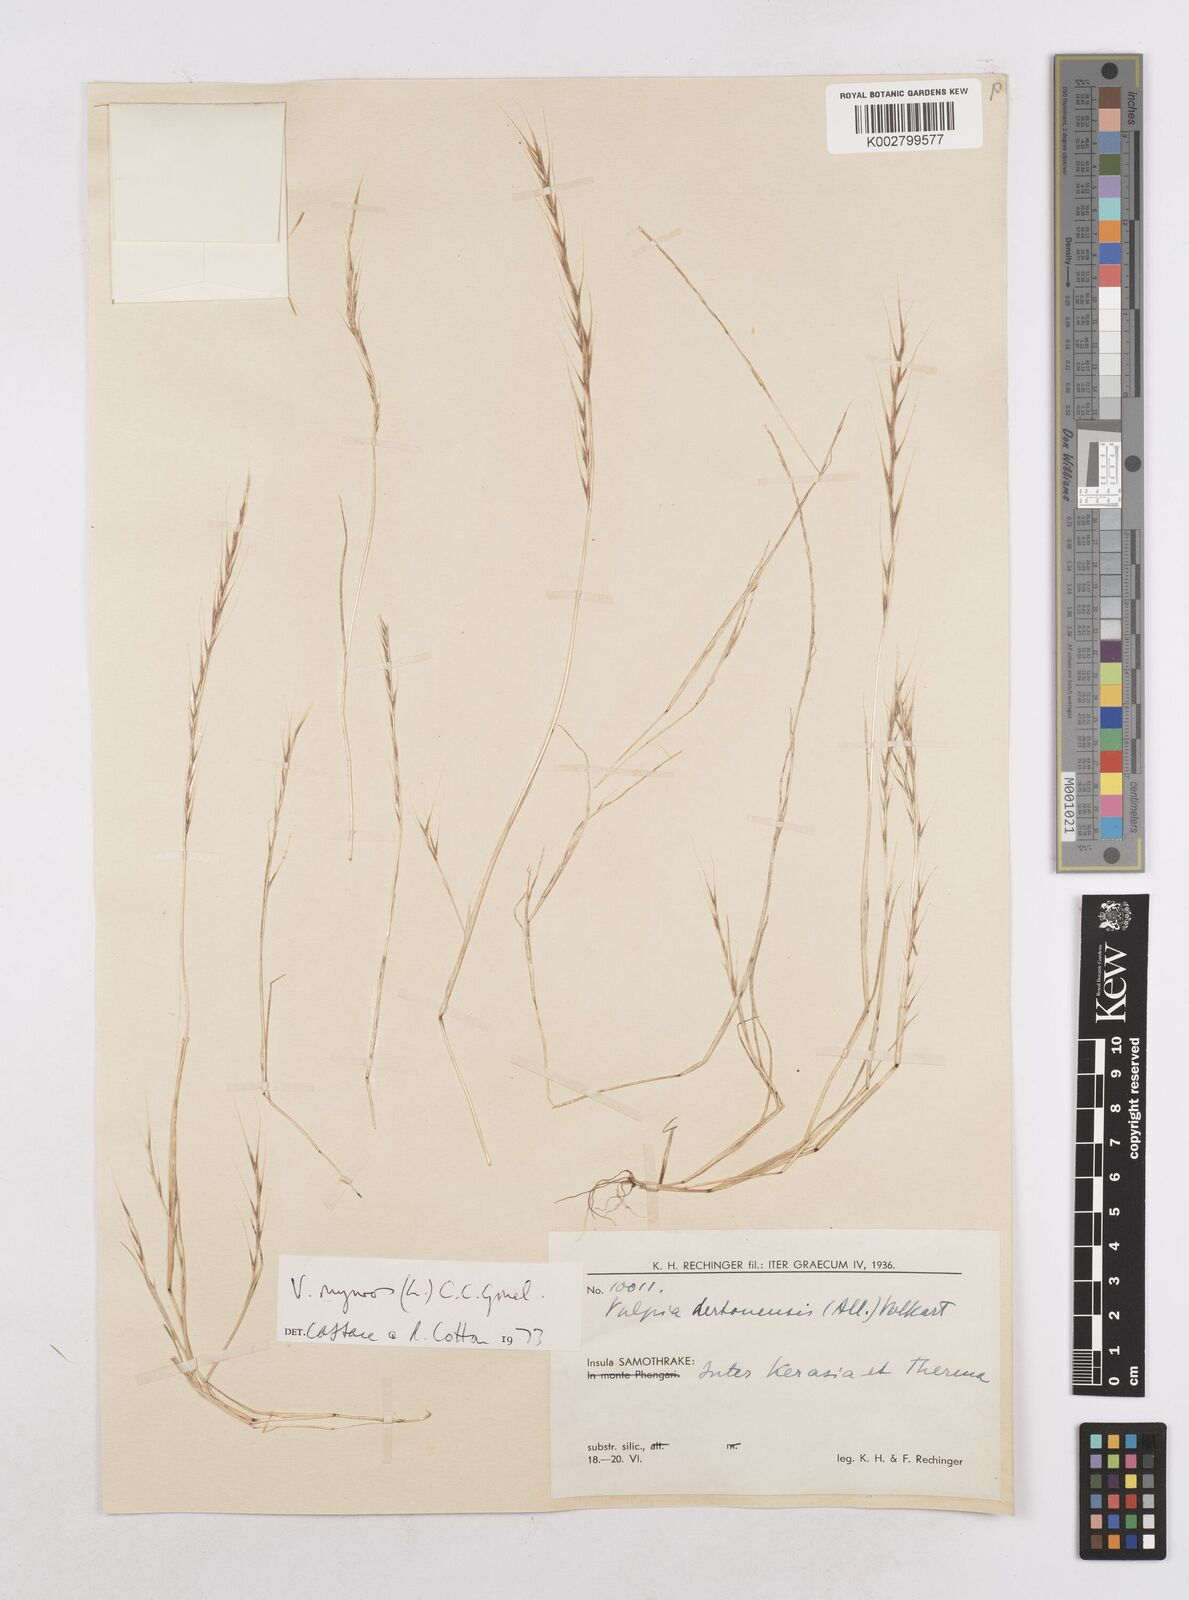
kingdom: Plantae
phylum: Tracheophyta
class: Liliopsida
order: Poales
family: Poaceae
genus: Festuca
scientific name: Festuca myuros
